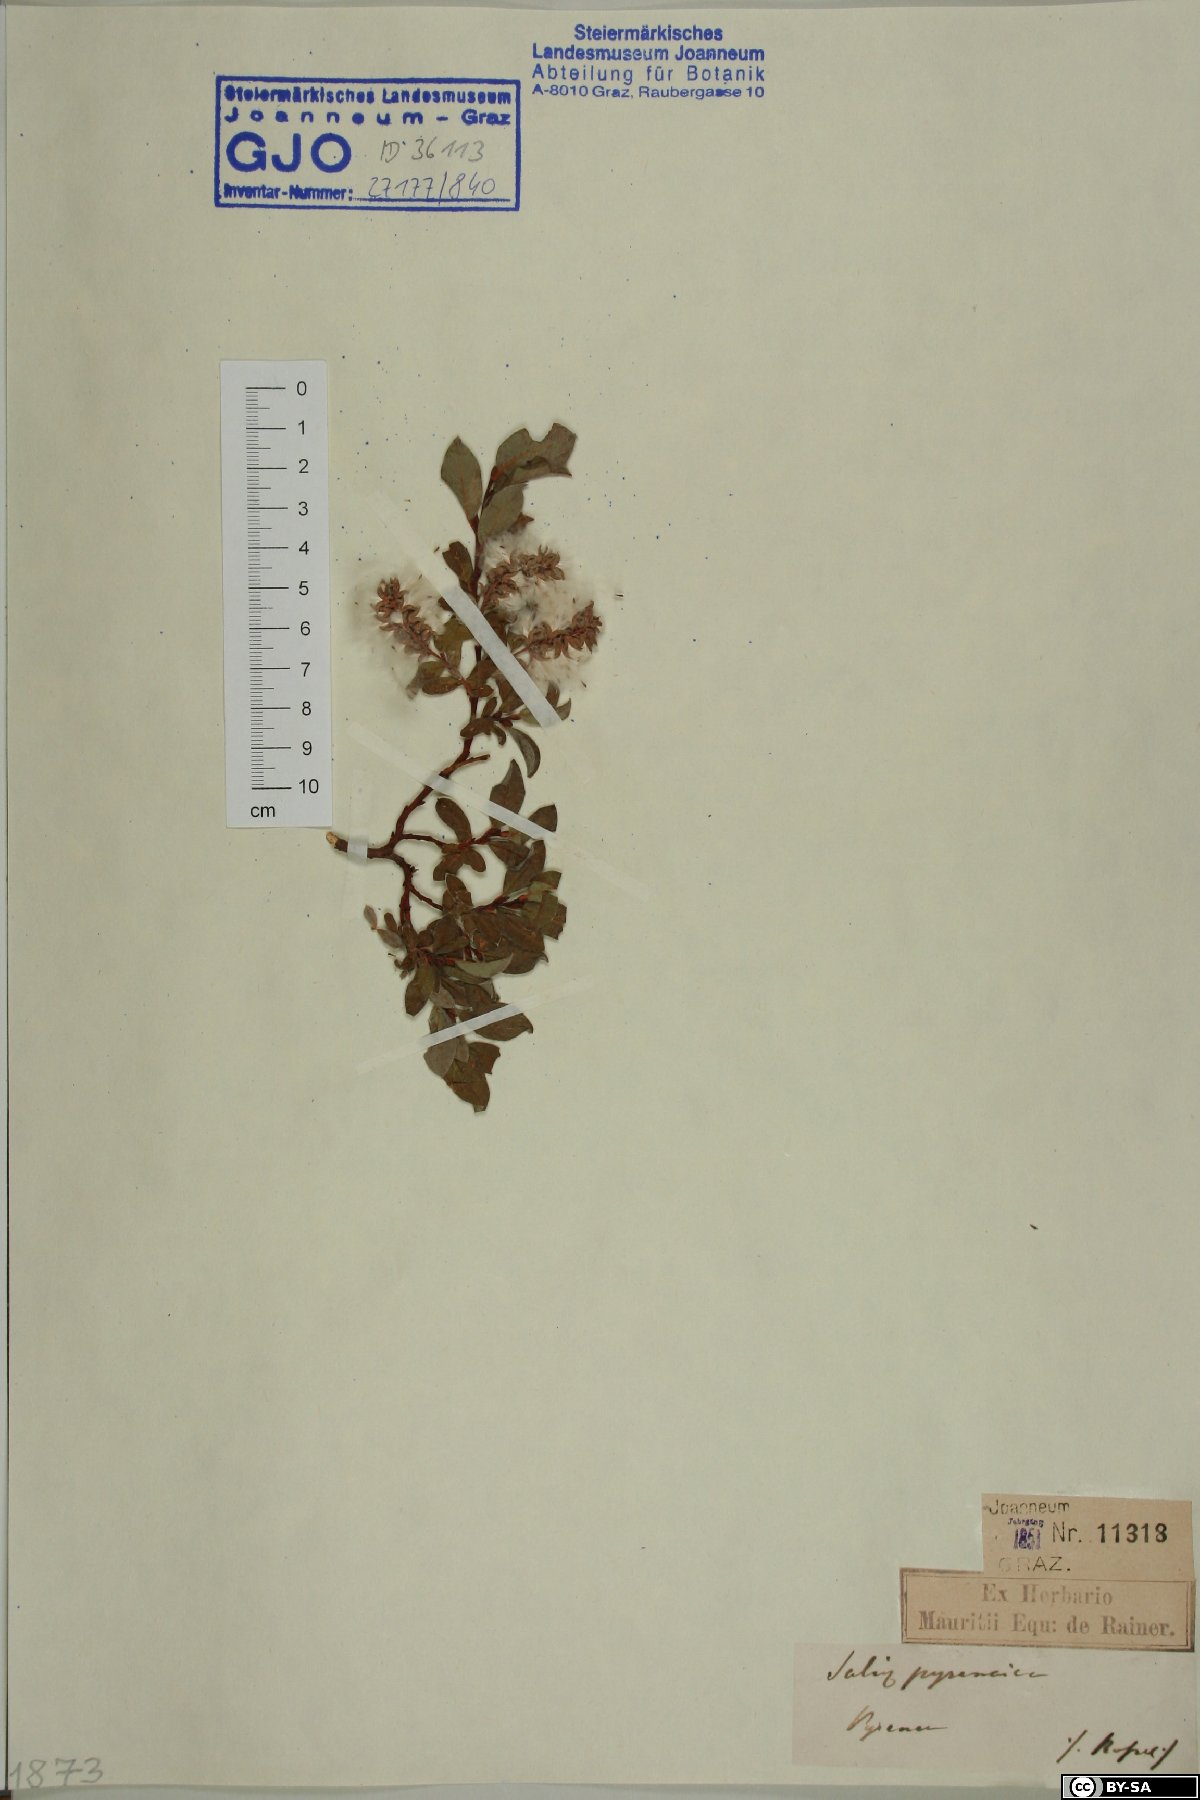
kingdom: Plantae
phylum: Tracheophyta
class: Magnoliopsida
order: Malpighiales
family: Salicaceae
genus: Salix
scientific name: Salix pyrenaica
